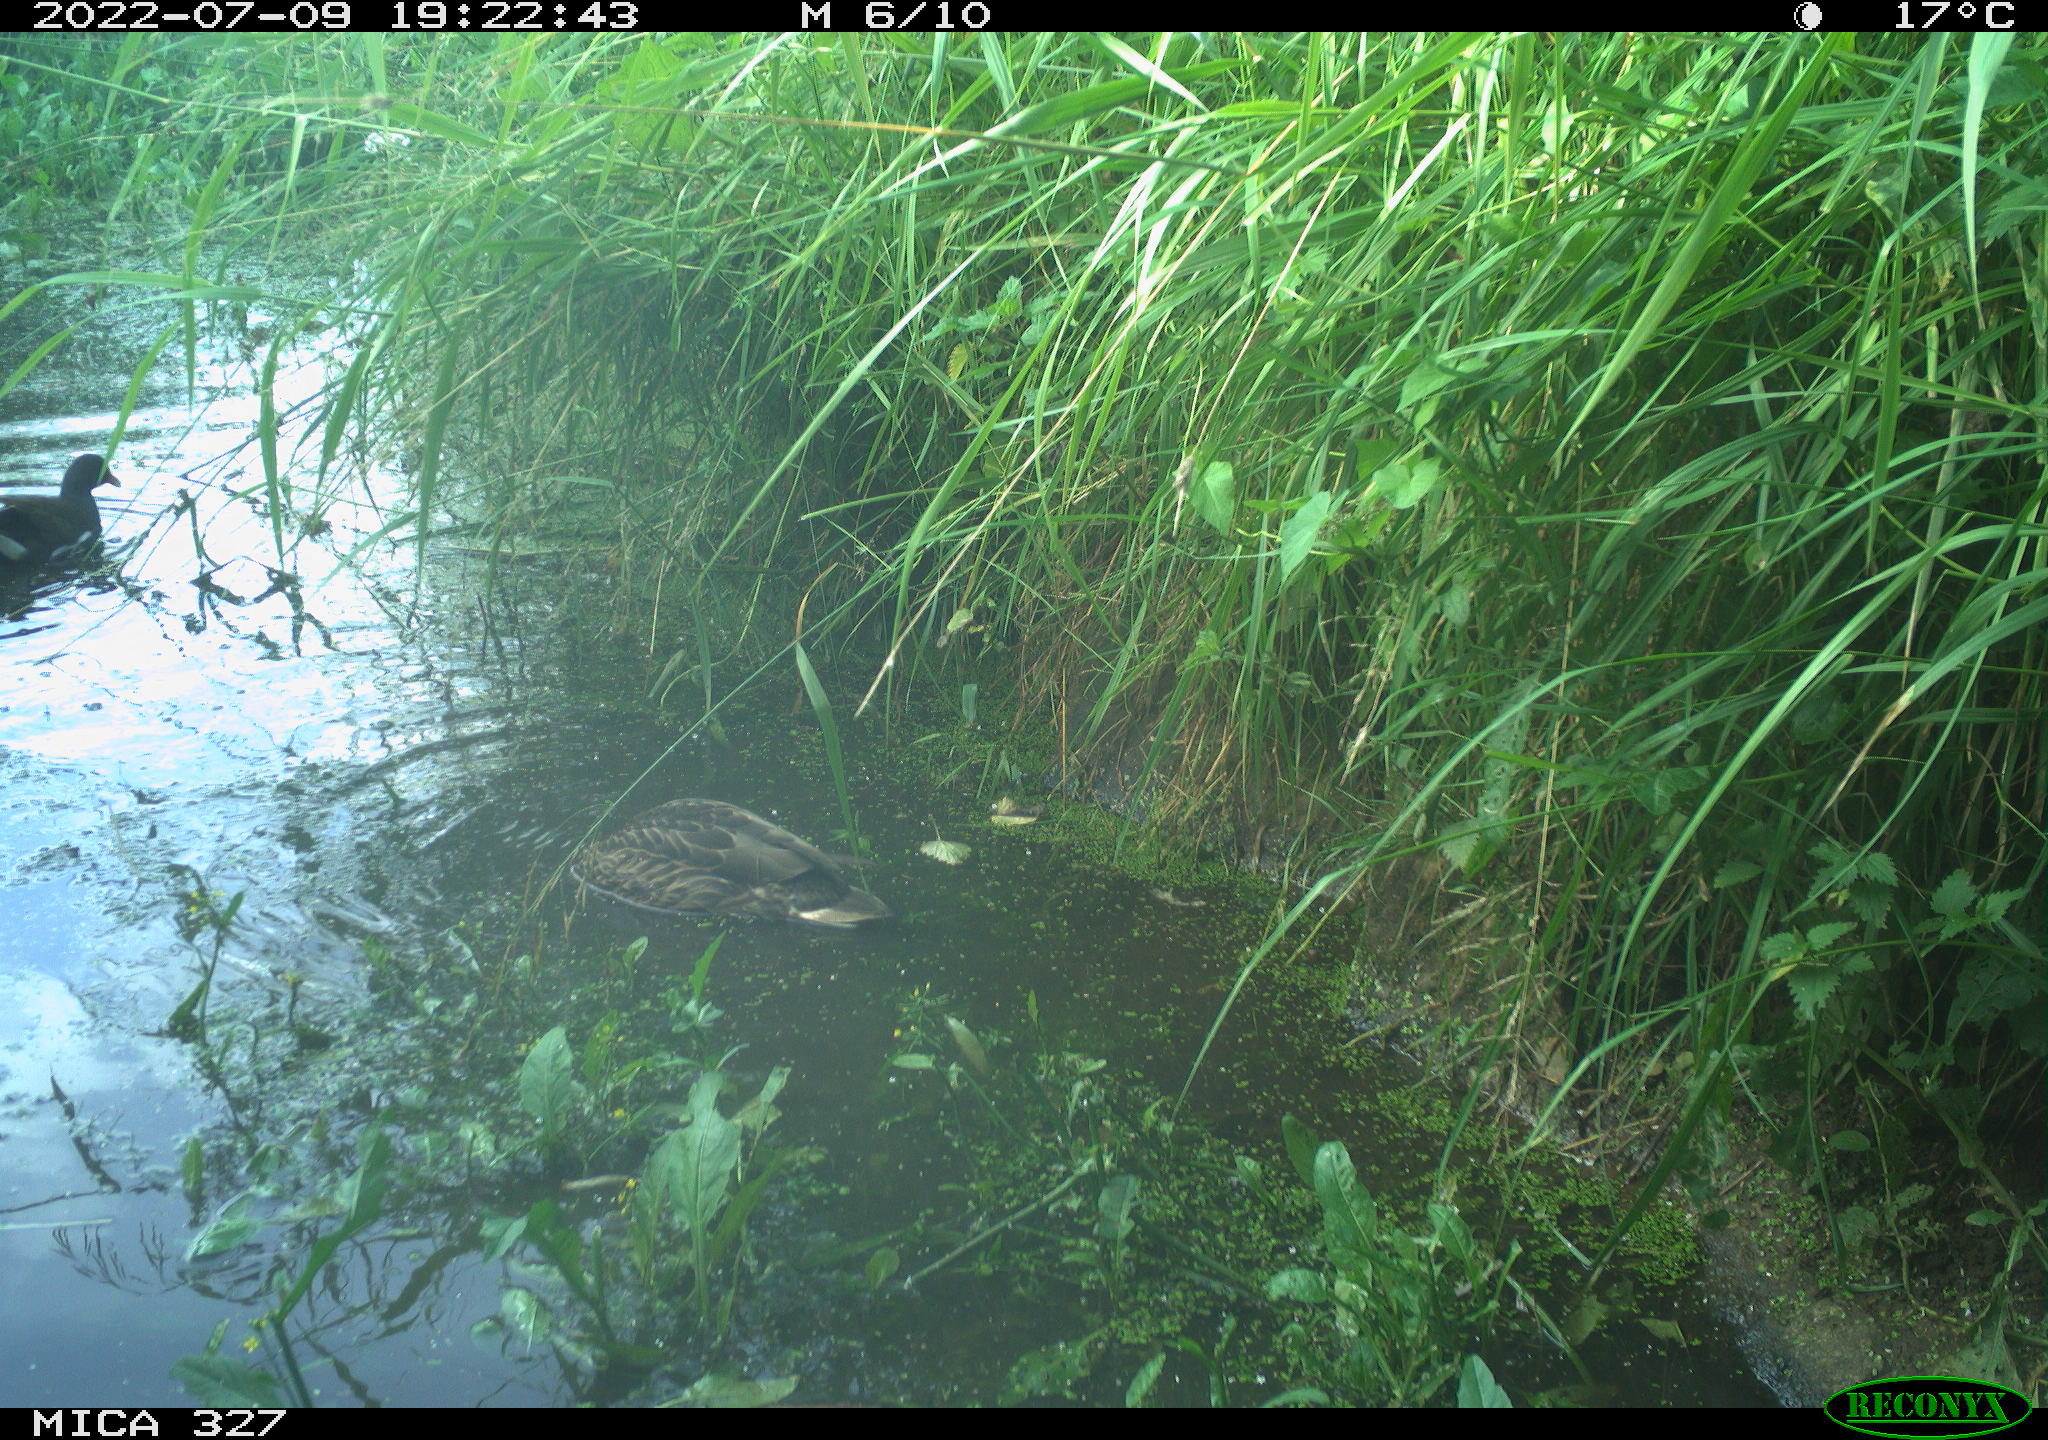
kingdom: Animalia
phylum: Chordata
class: Aves
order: Gruiformes
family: Rallidae
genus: Gallinula
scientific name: Gallinula chloropus
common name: Common moorhen
